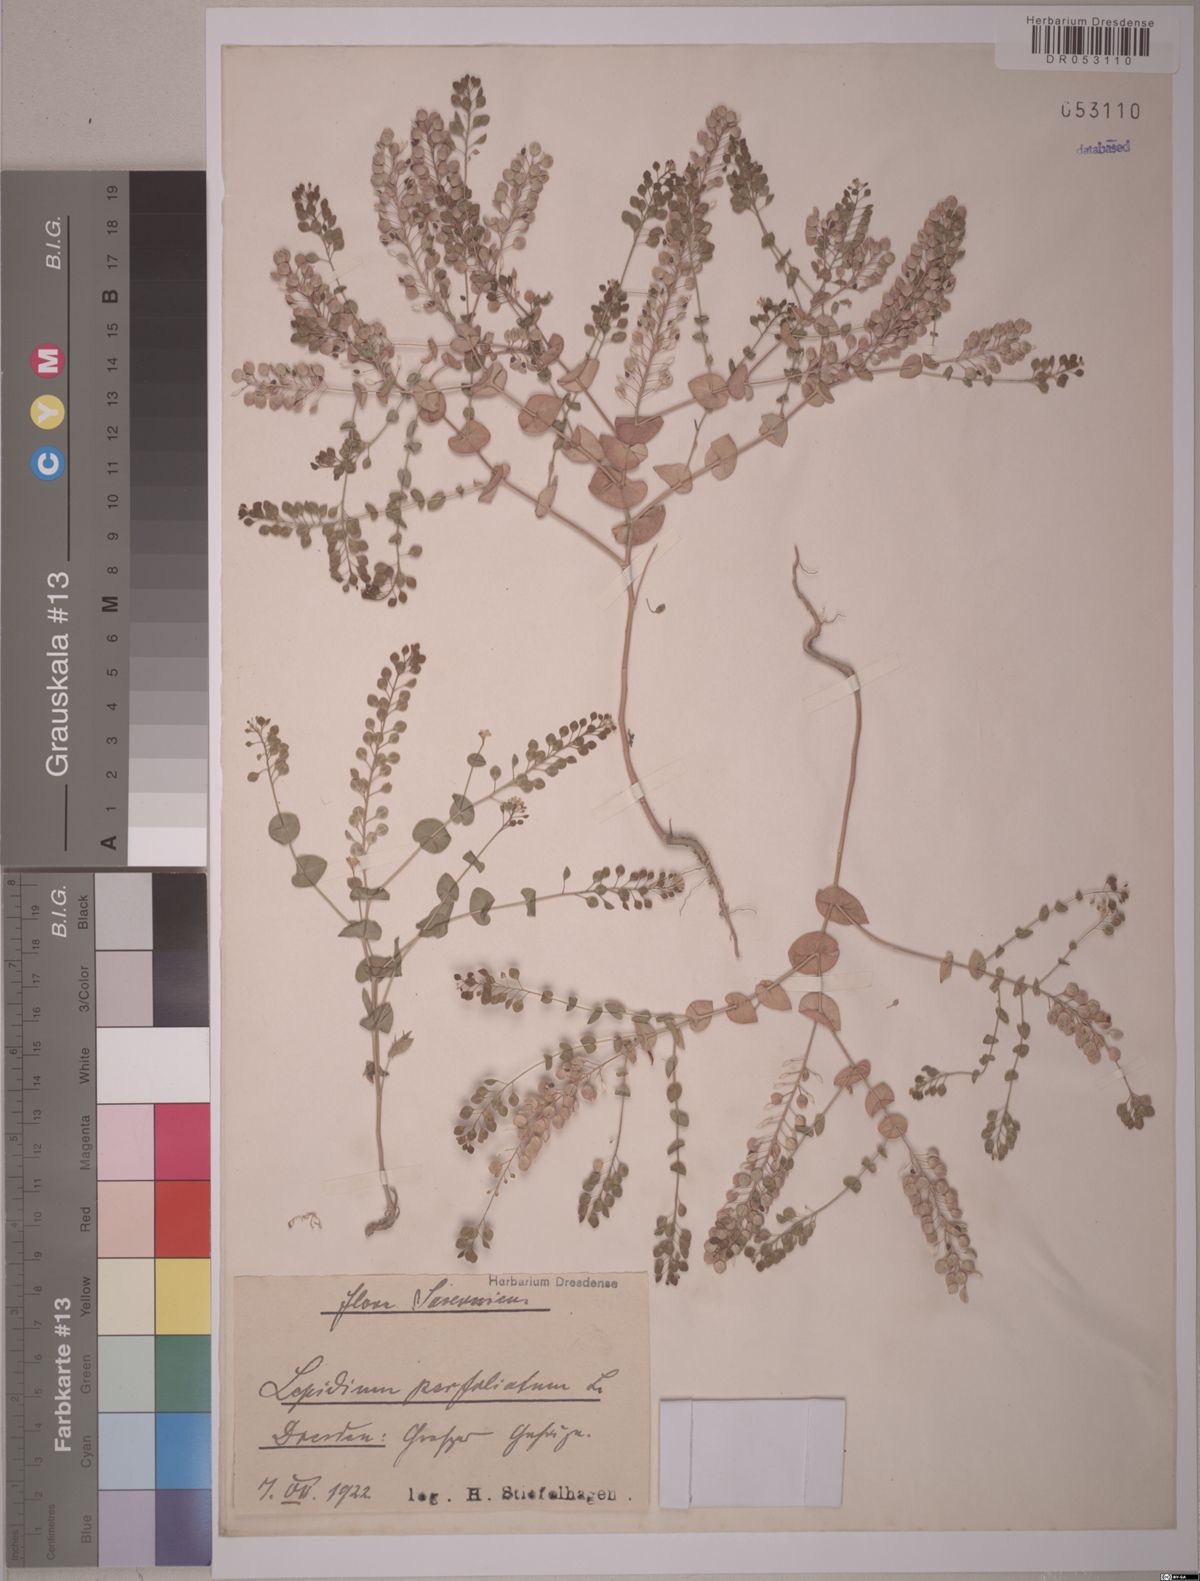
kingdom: Plantae
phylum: Tracheophyta
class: Magnoliopsida
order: Brassicales
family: Brassicaceae
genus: Lepidium
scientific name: Lepidium perfoliatum
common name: Perfoliate pepperwort
